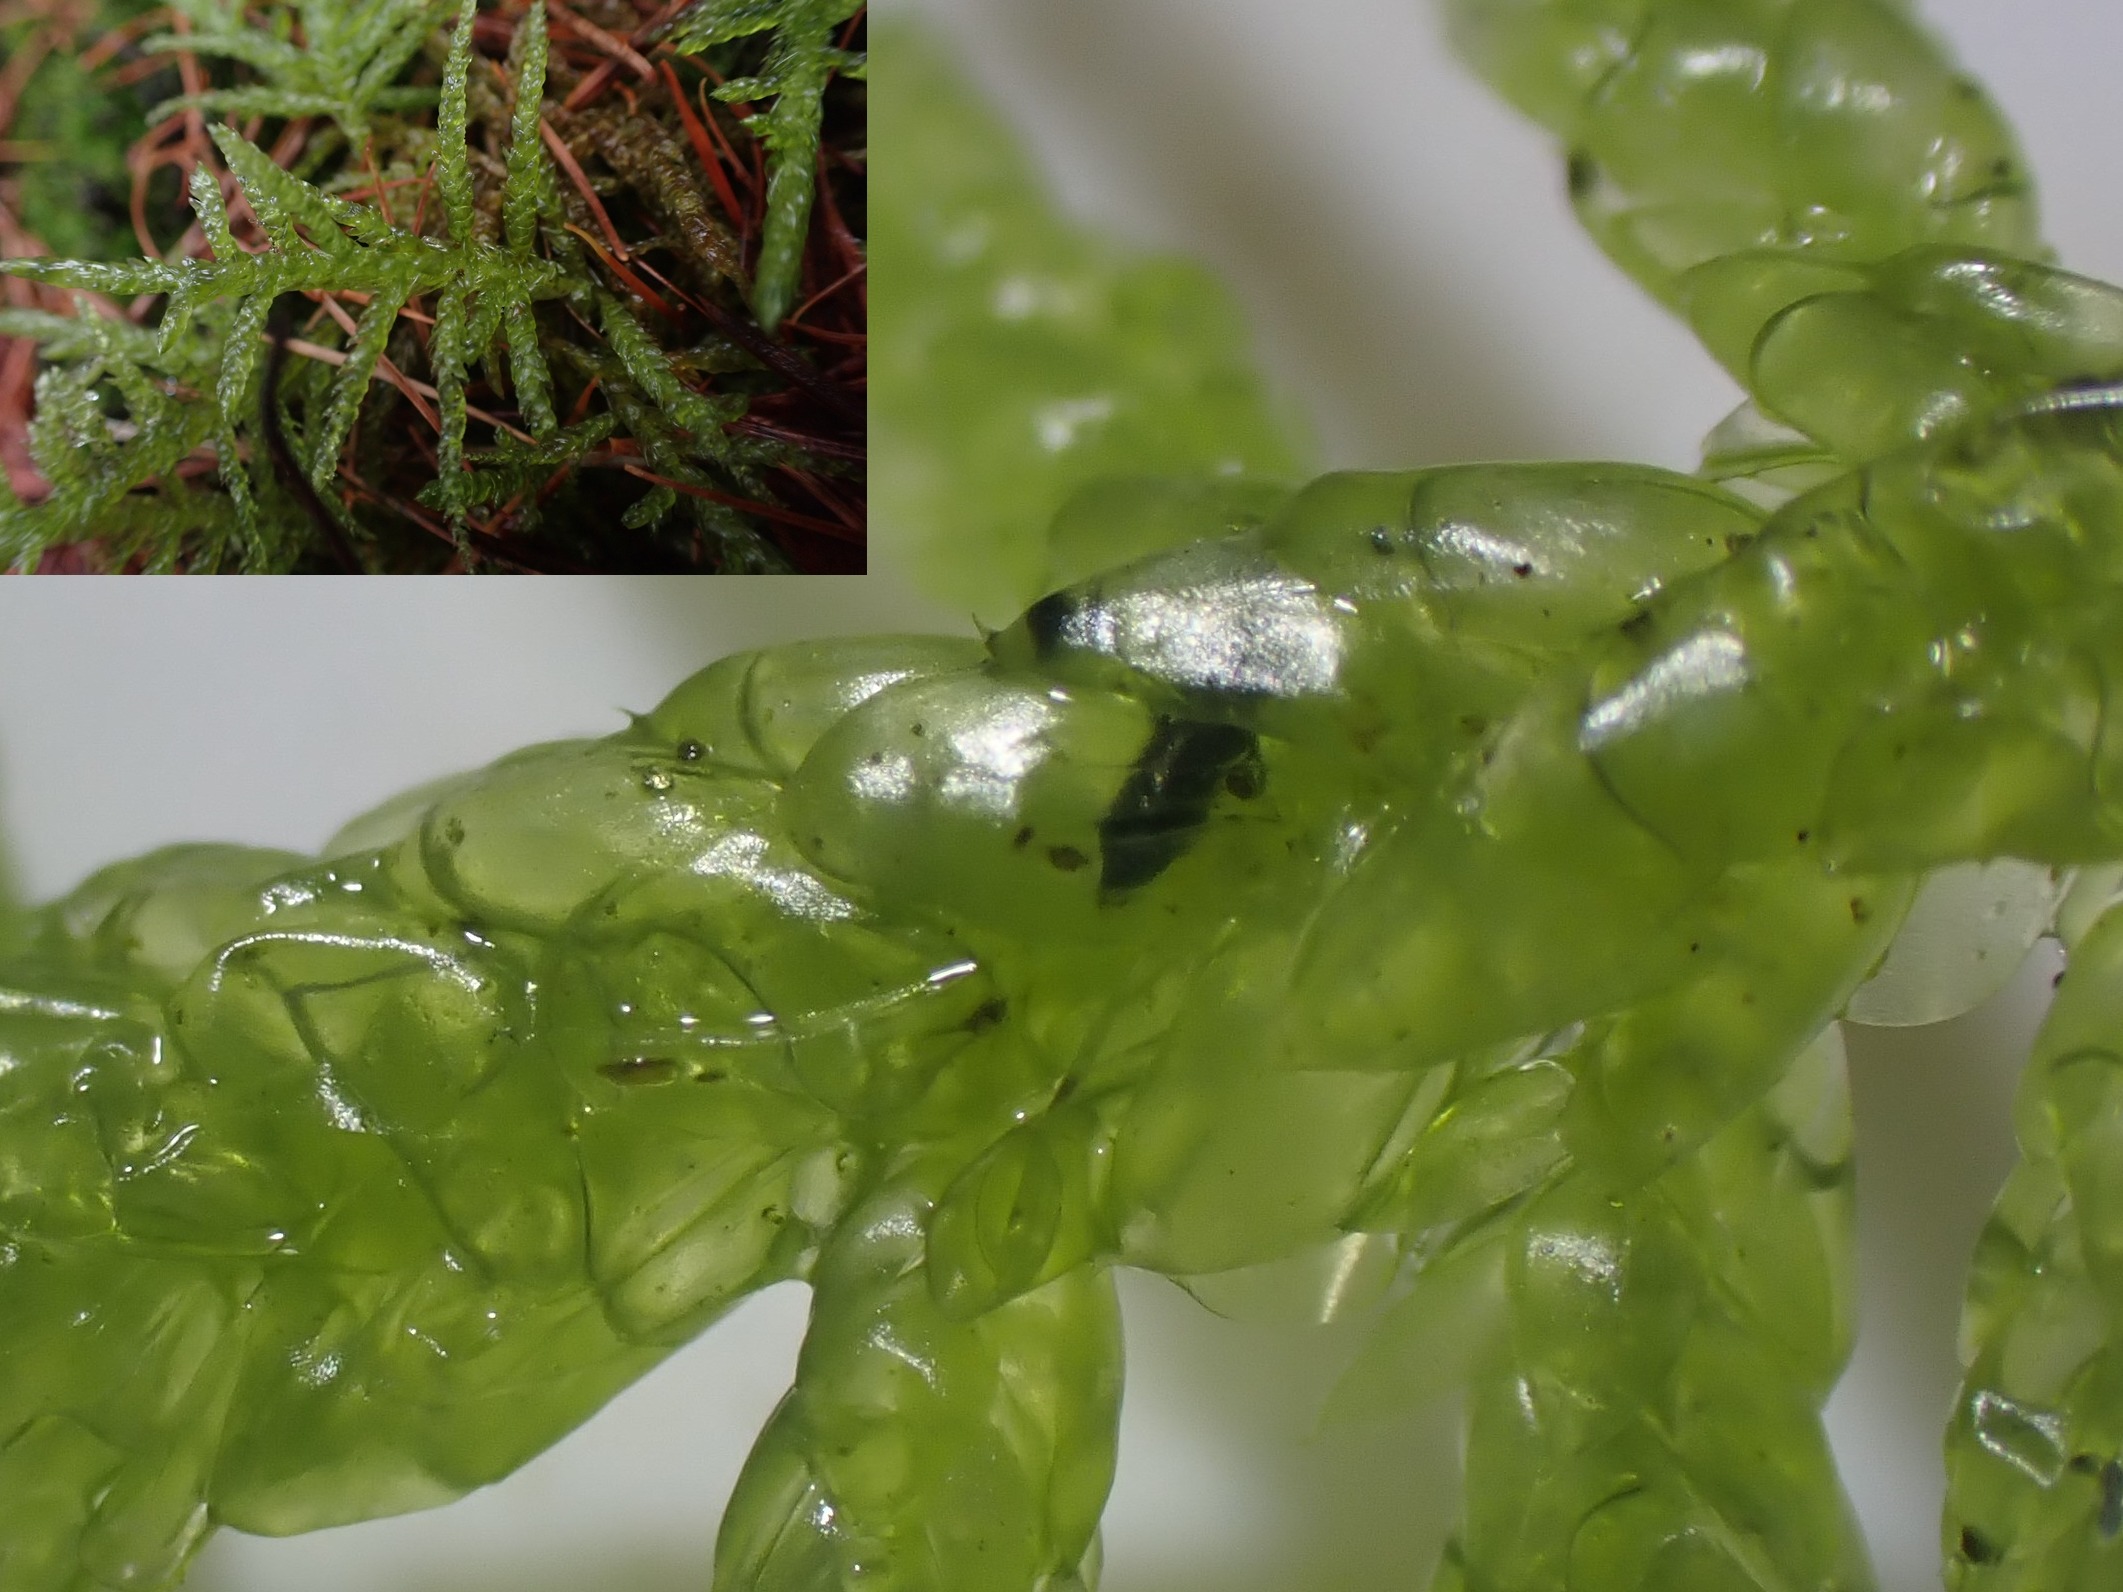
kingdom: Plantae
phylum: Bryophyta
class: Bryopsida
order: Hypnales
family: Brachytheciaceae
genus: Pseudoscleropodium
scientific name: Pseudoscleropodium purum
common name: Hulbladet fedtmos
